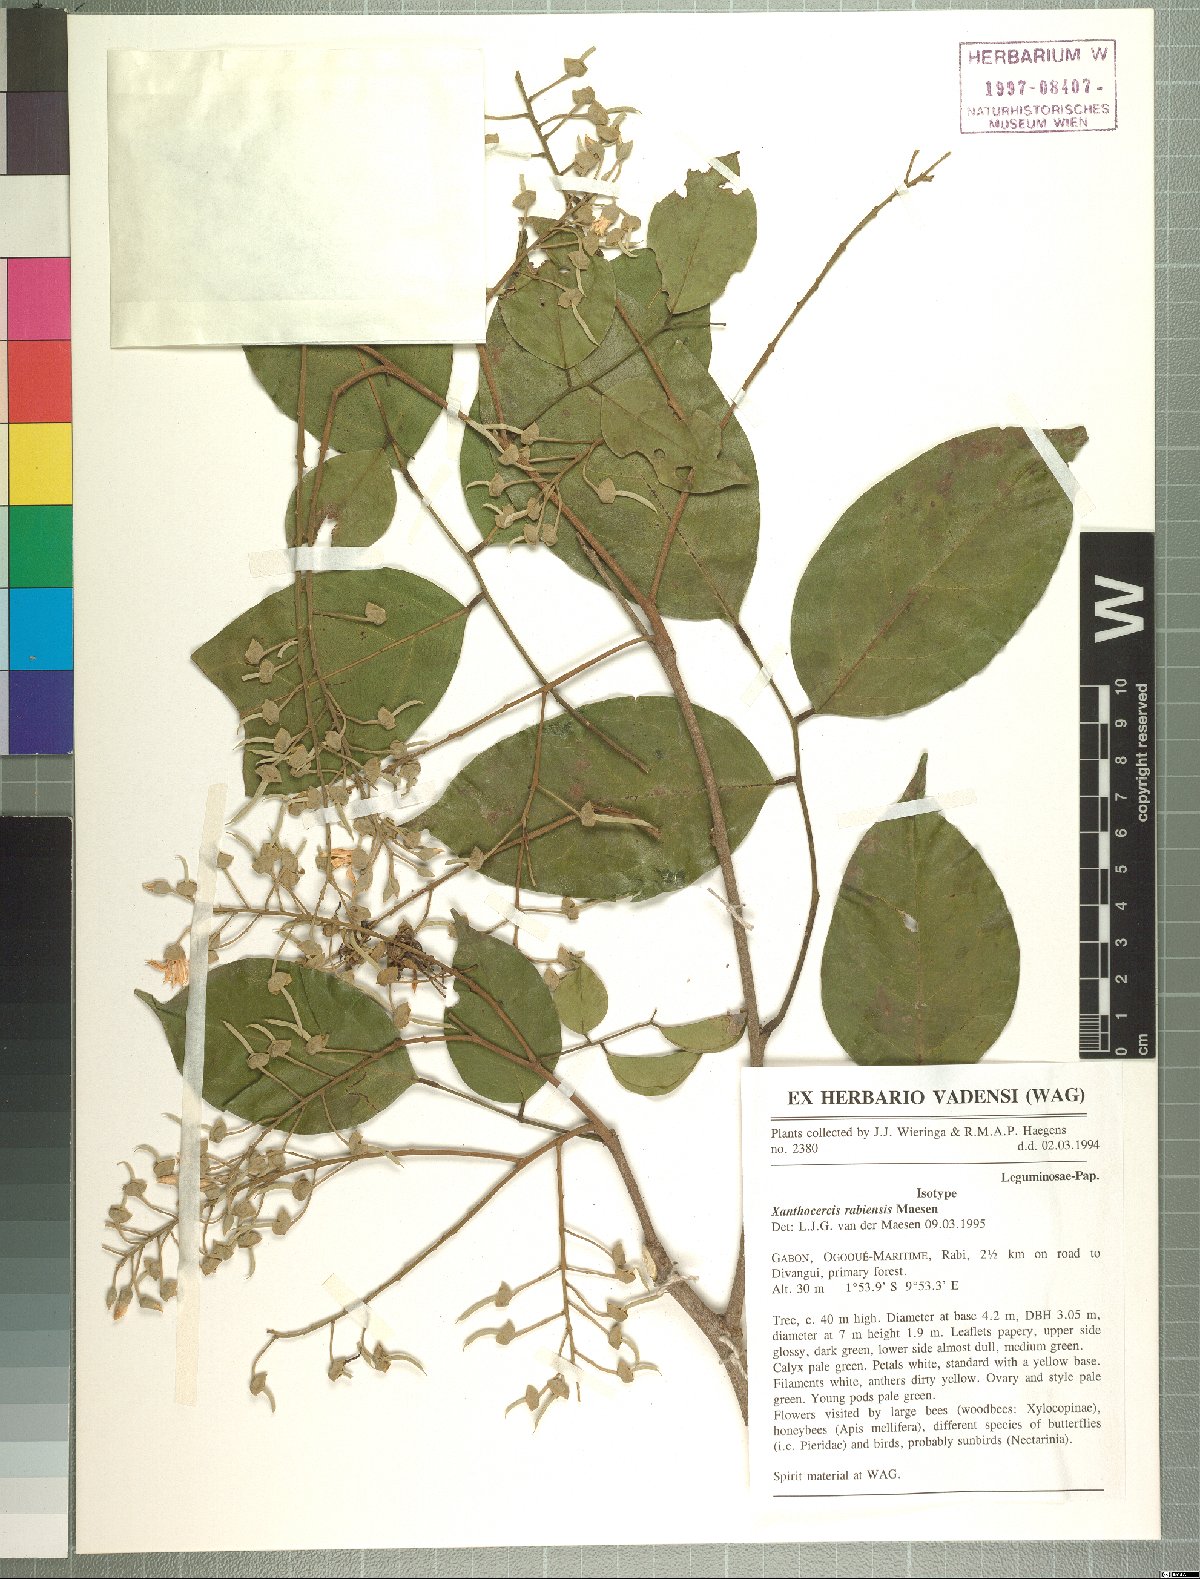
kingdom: Plantae
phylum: Tracheophyta
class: Magnoliopsida
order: Fabales
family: Fabaceae
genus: Xanthocercis
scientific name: Xanthocercis rabiensis
